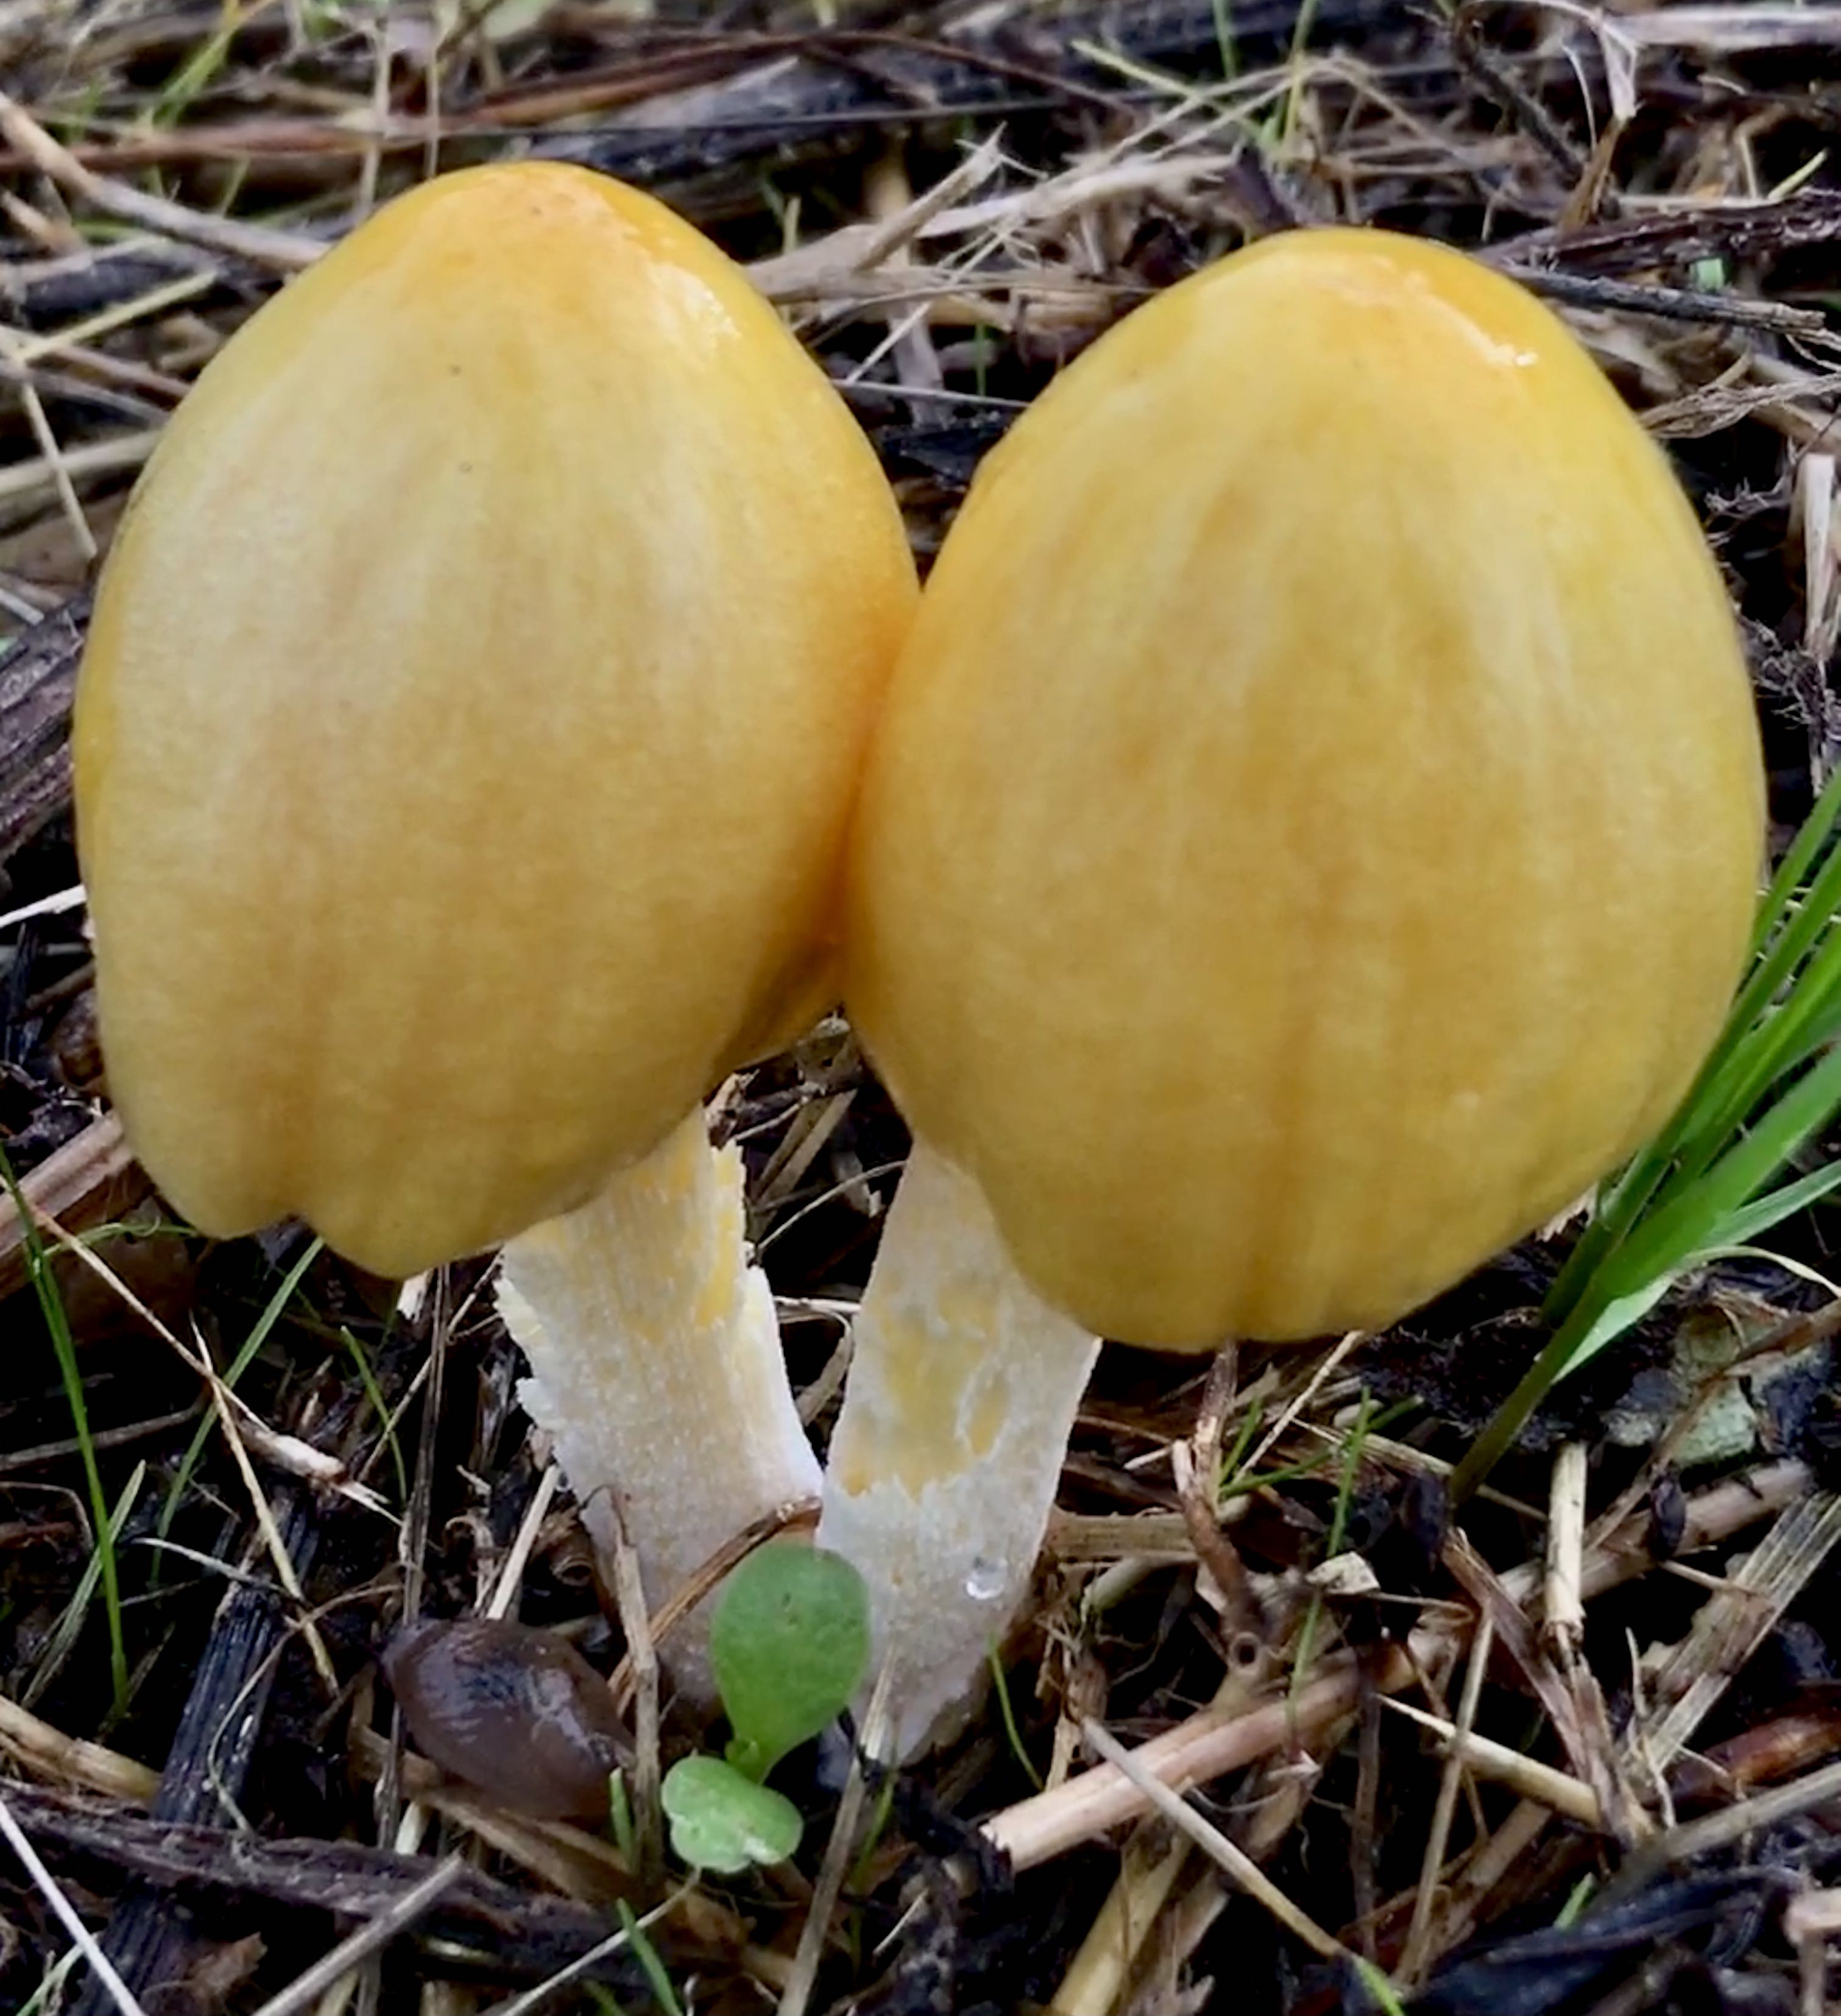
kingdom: Fungi
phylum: Basidiomycota
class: Agaricomycetes
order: Agaricales
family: Bolbitiaceae
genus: Bolbitius
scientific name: Bolbitius titubans
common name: almindelig gulhat
